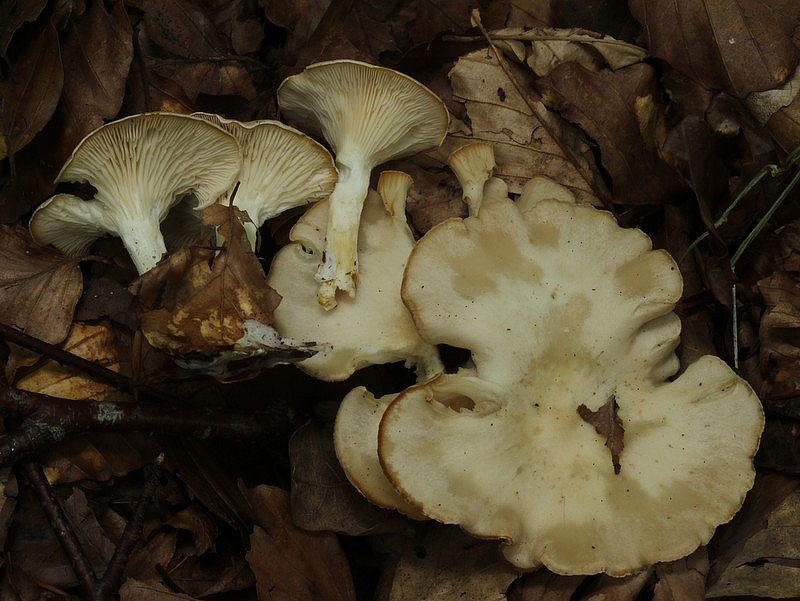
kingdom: Fungi
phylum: Basidiomycota
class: Agaricomycetes
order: Agaricales
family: Tricholomataceae
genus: Infundibulicybe
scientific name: Infundibulicybe gibba
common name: almindelig tragthat
